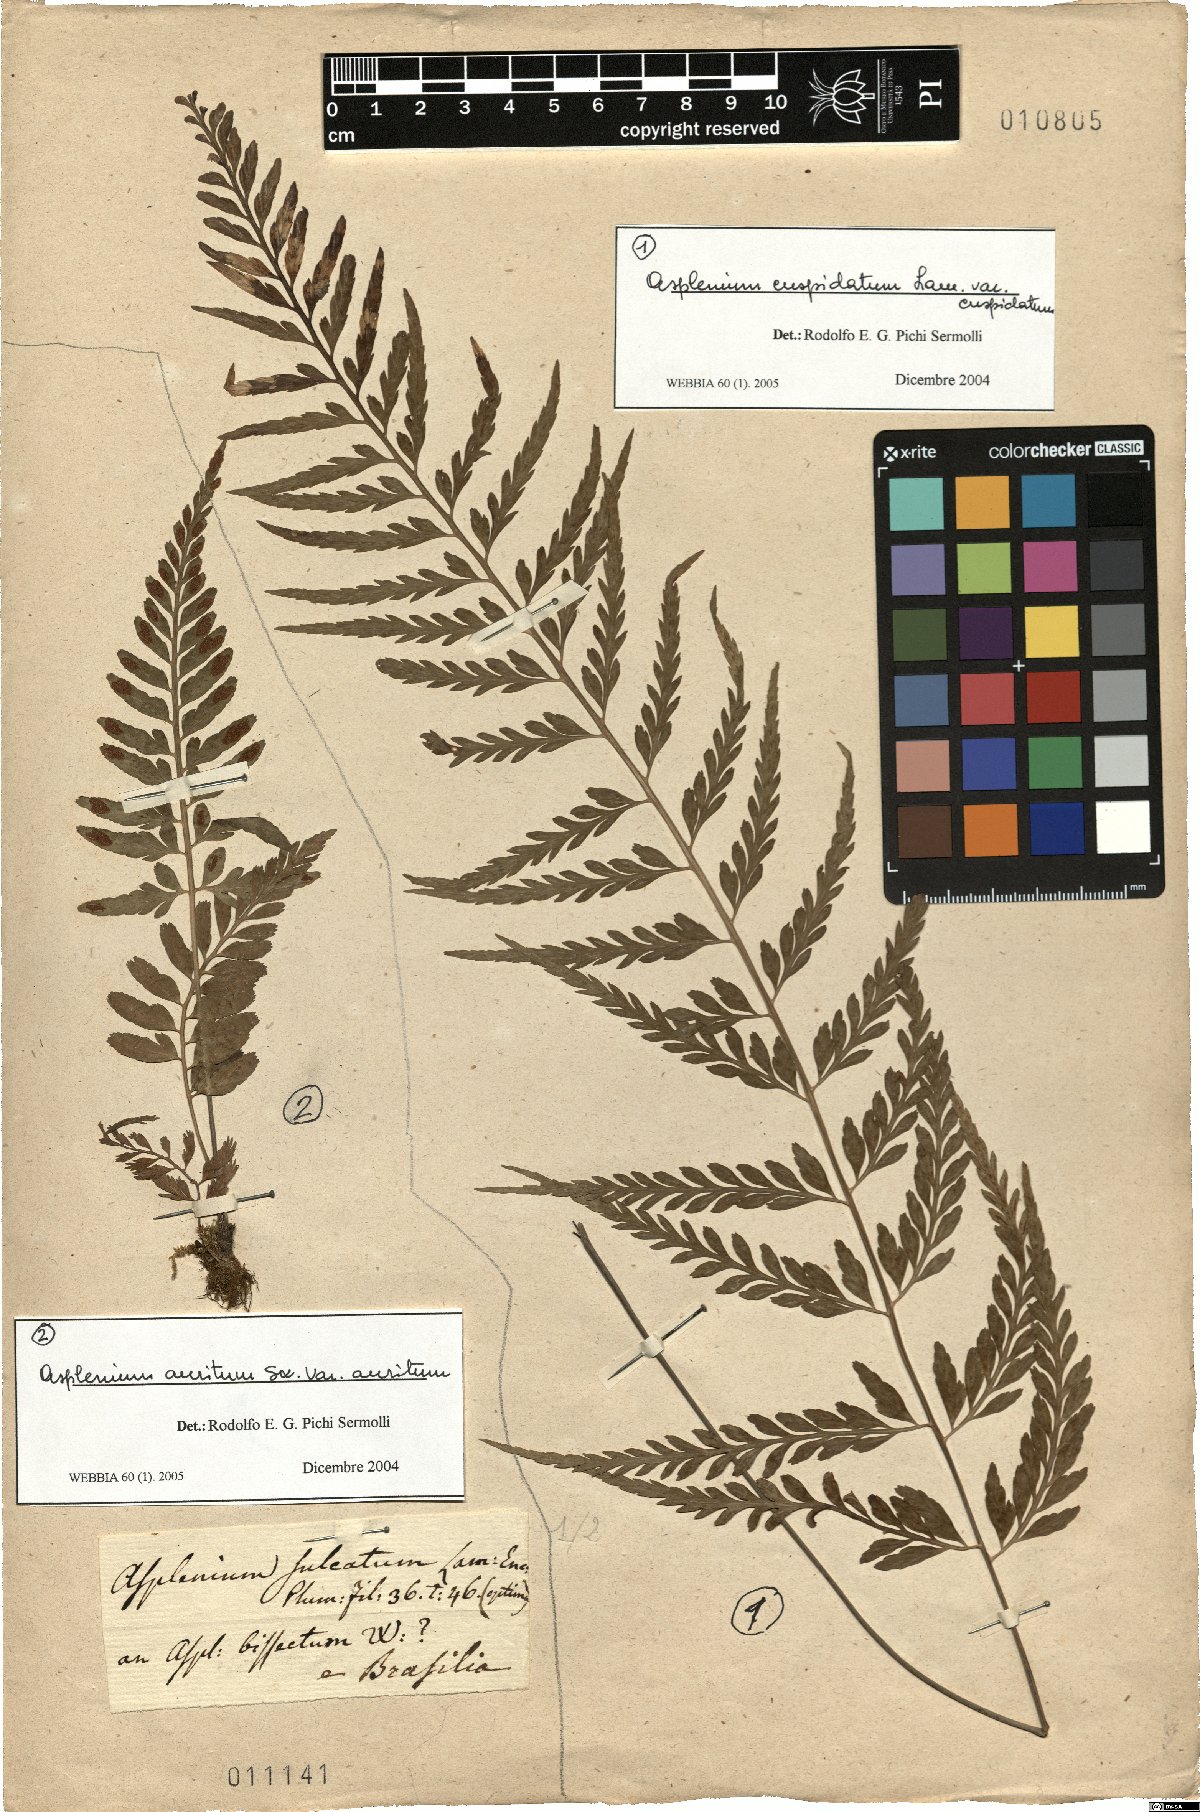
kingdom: Plantae
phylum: Tracheophyta
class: Polypodiopsida
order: Polypodiales
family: Aspleniaceae
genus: Asplenium
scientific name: Asplenium cuspidatum
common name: Eared spleenwort
